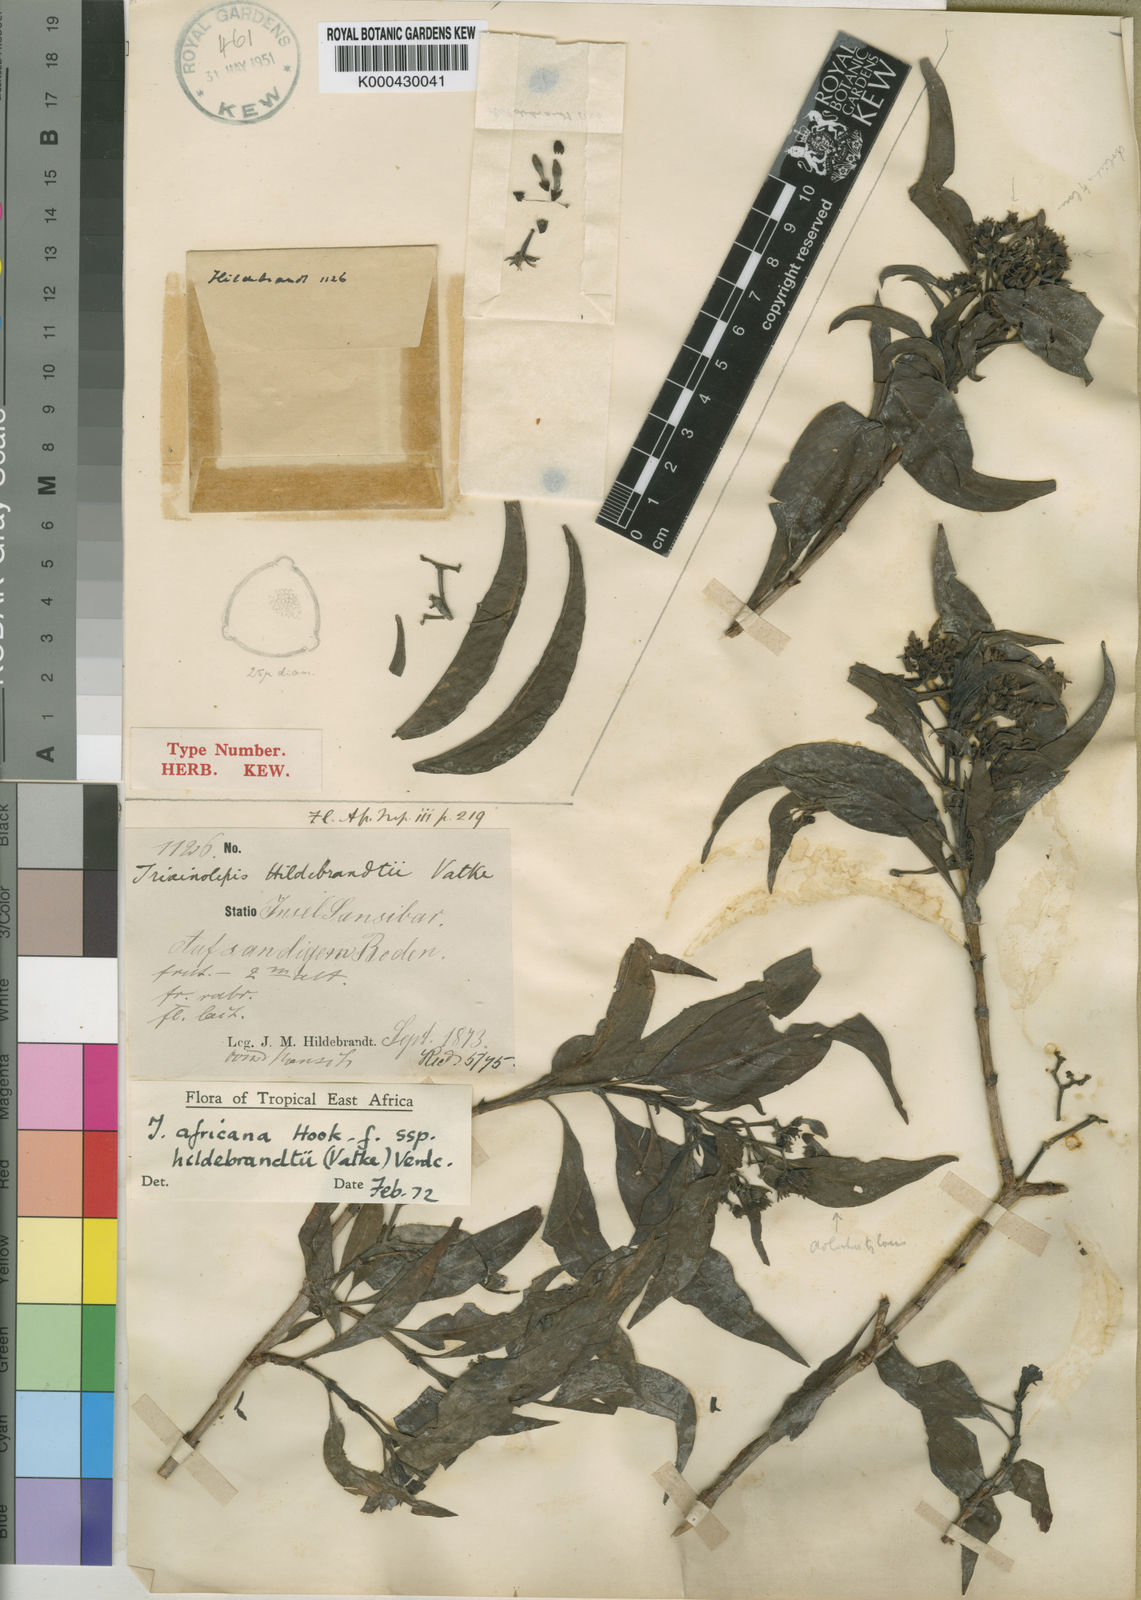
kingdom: Plantae
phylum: Tracheophyta
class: Magnoliopsida
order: Gentianales
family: Rubiaceae
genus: Triainolepis
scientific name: Triainolepis africana
